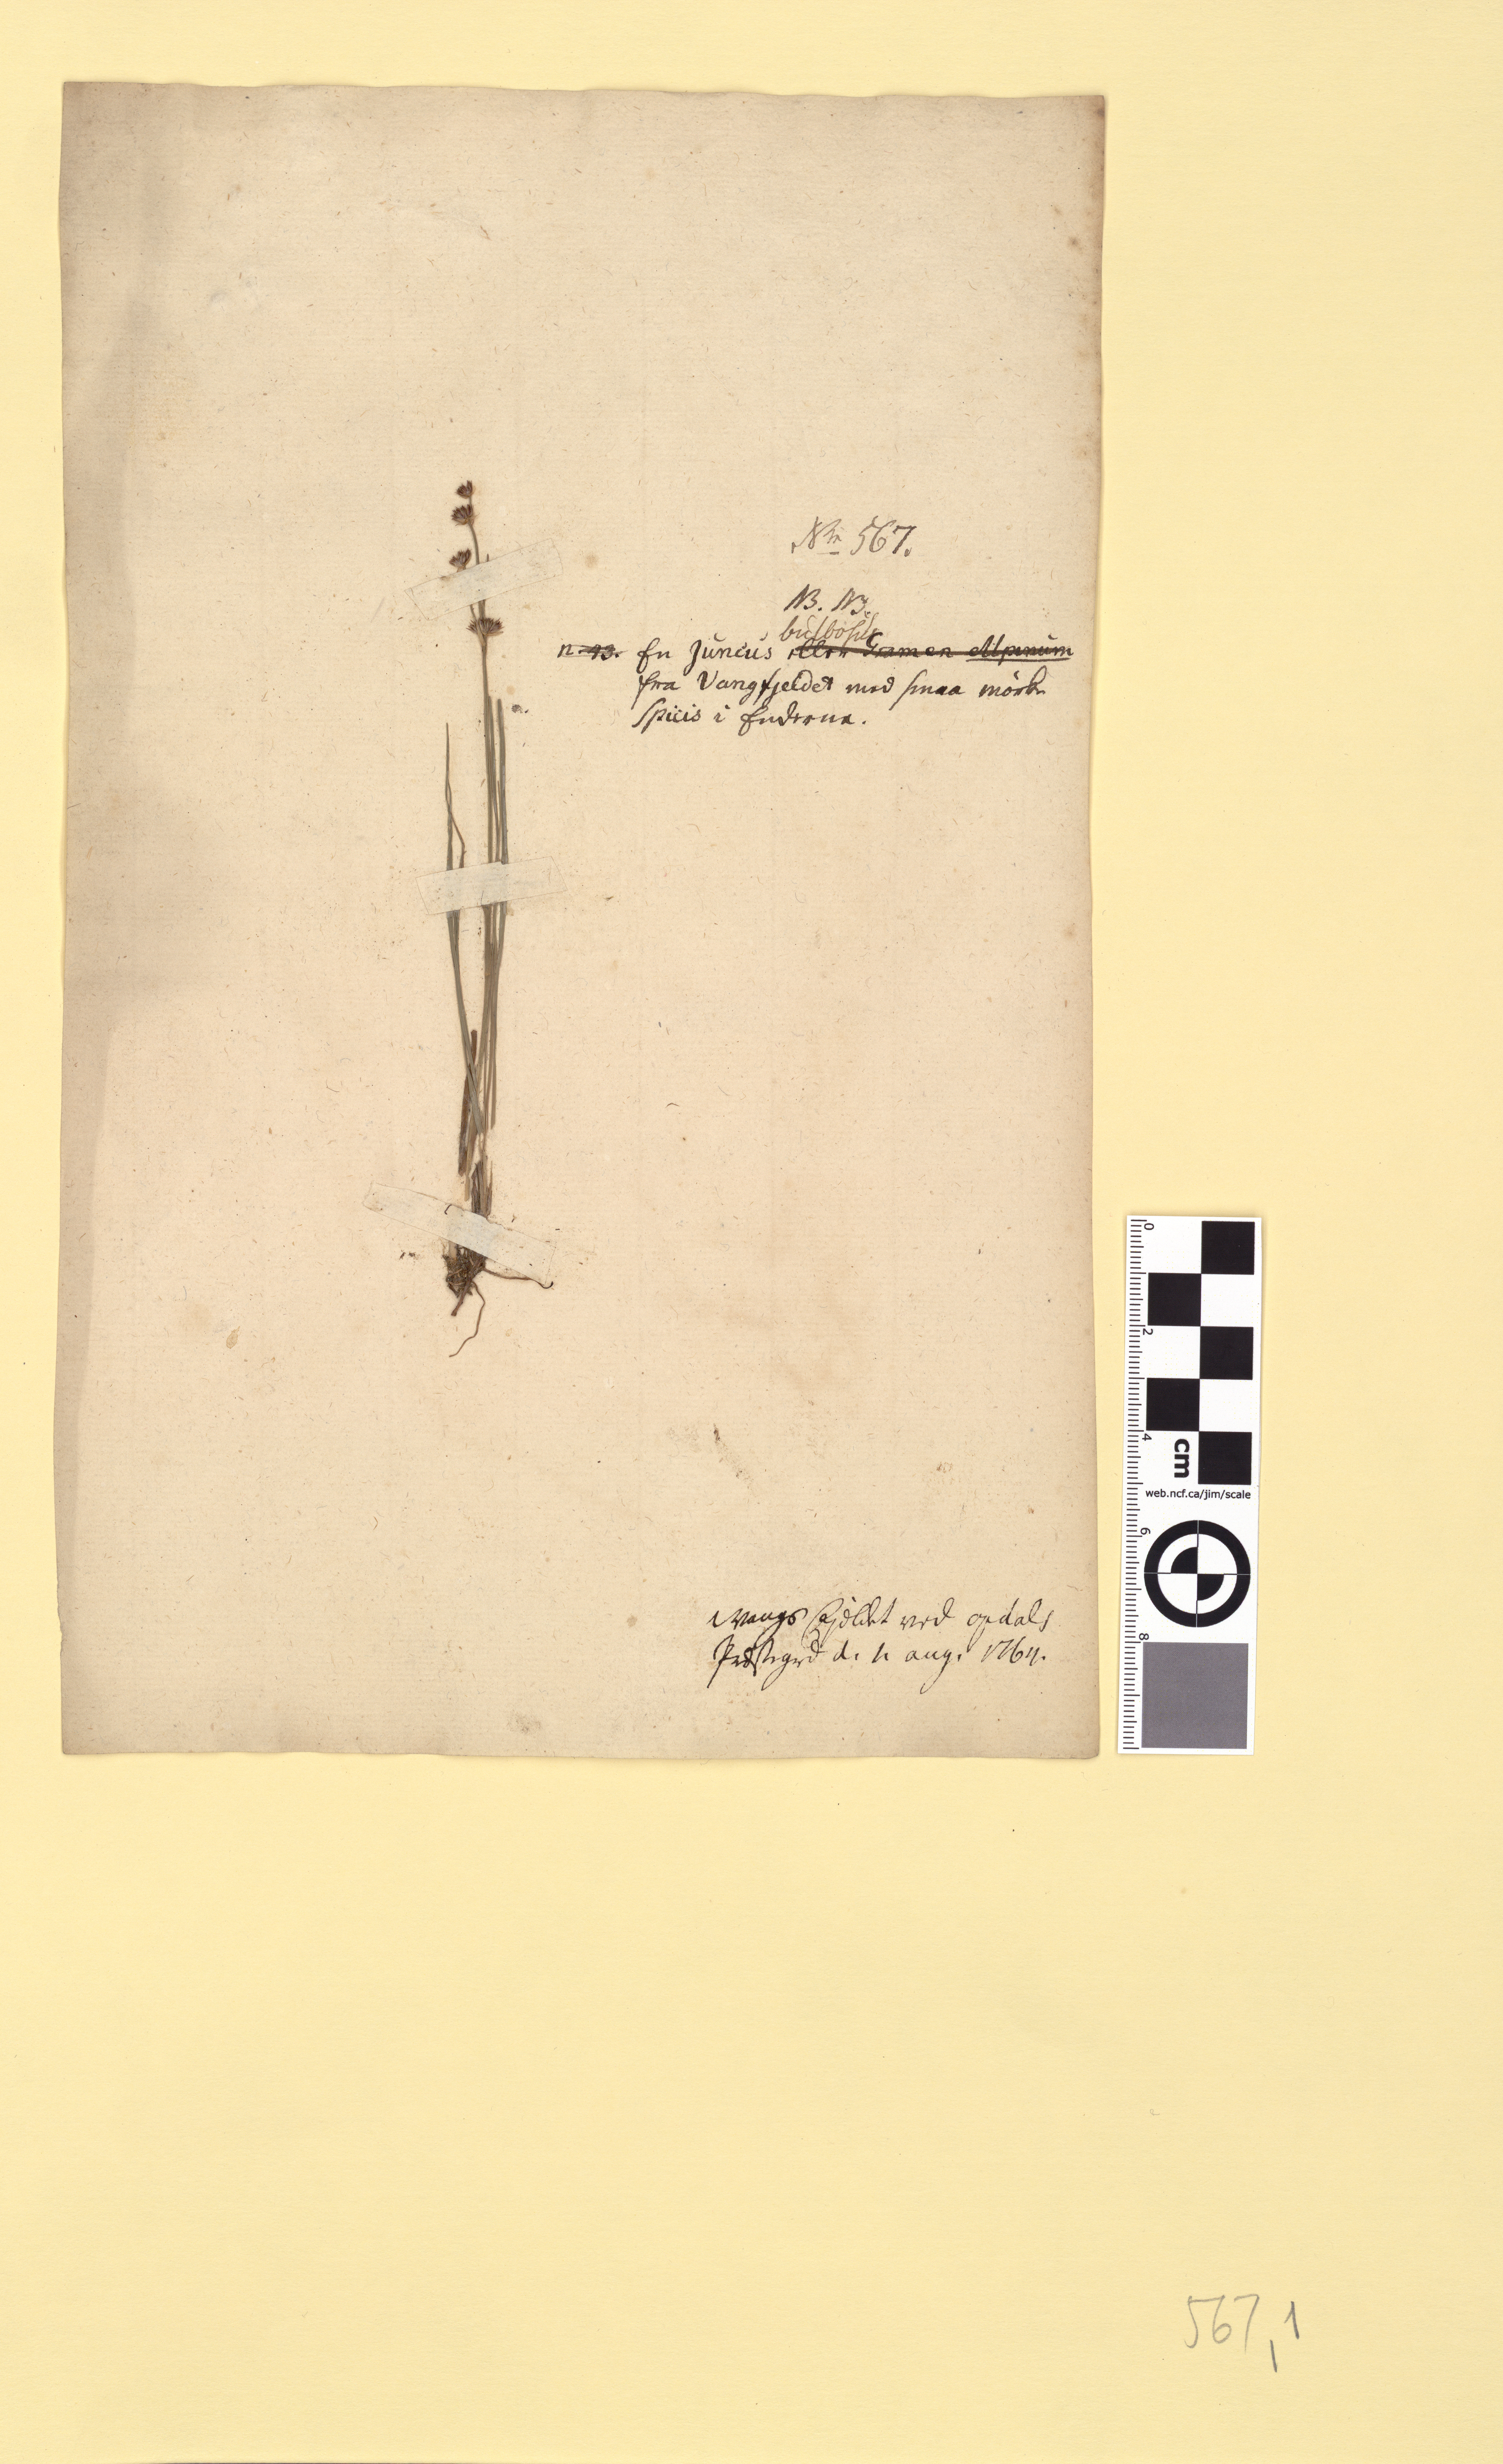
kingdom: Plantae
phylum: Tracheophyta
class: Liliopsida
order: Poales
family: Juncaceae
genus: Juncus
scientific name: Juncus bulbosus
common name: Bulbous rush
